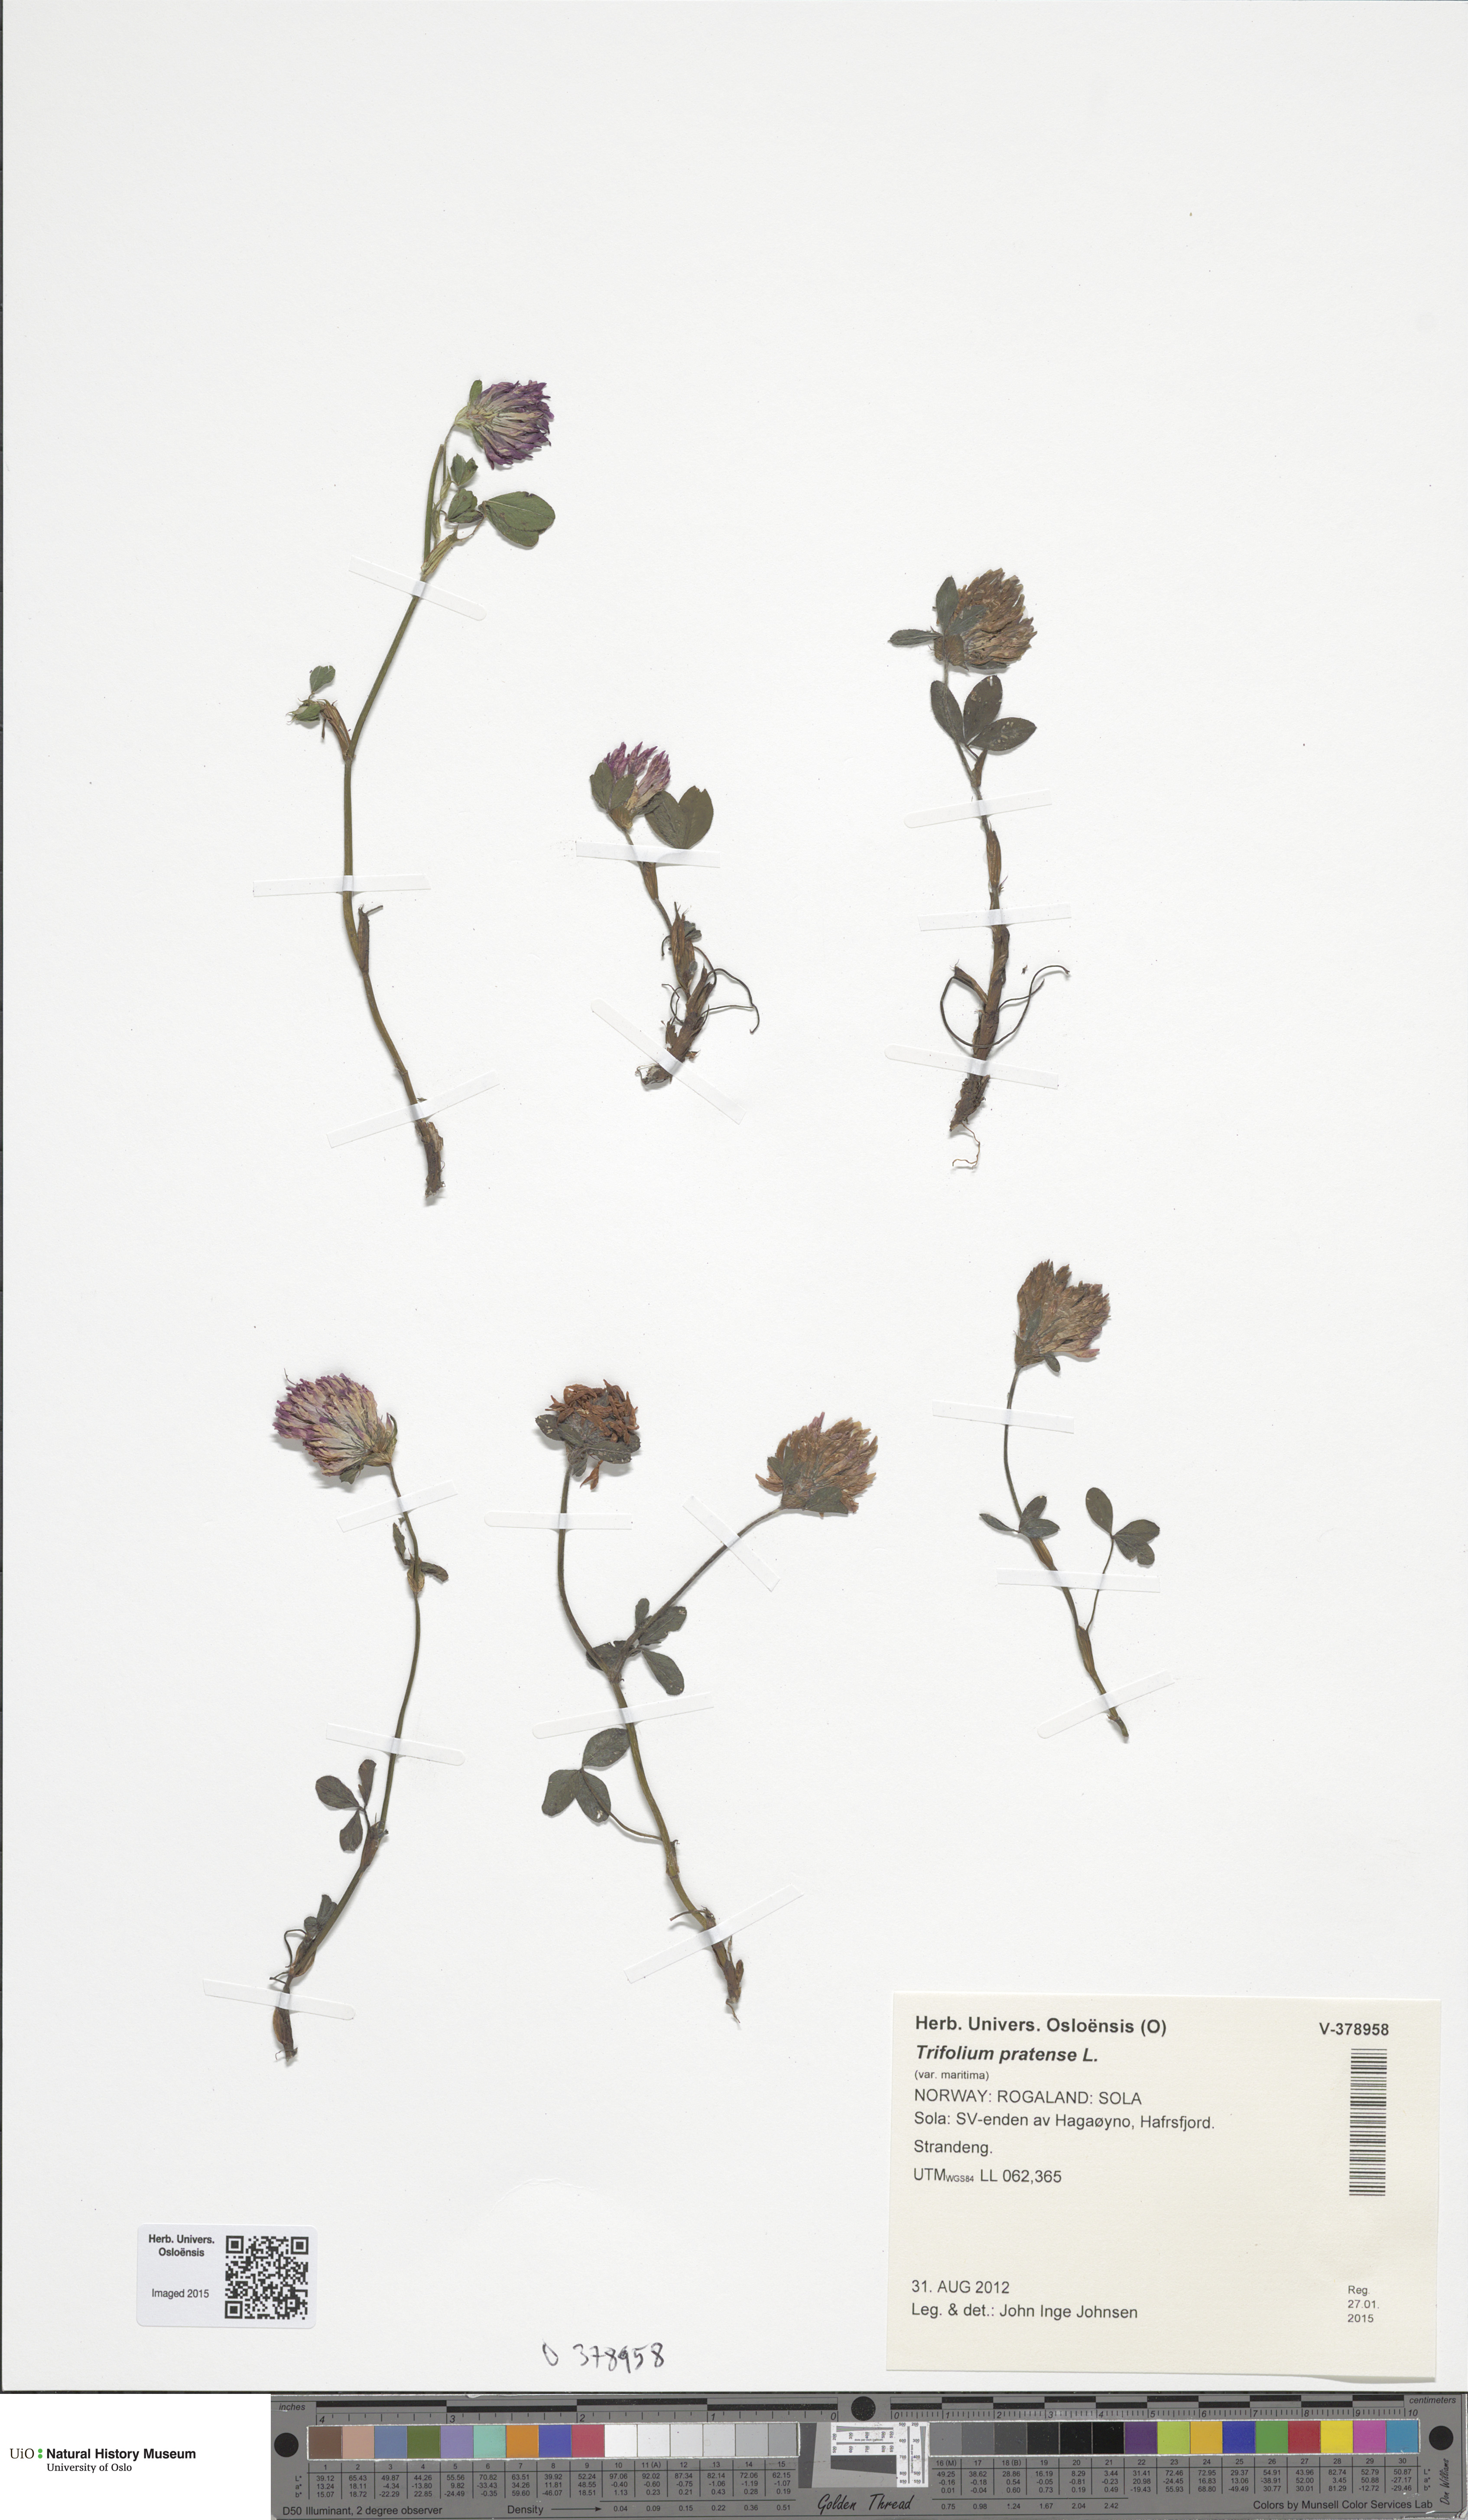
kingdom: Plantae
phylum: Tracheophyta
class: Magnoliopsida
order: Fabales
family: Fabaceae
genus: Trifolium
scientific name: Trifolium pratense
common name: Red clover
